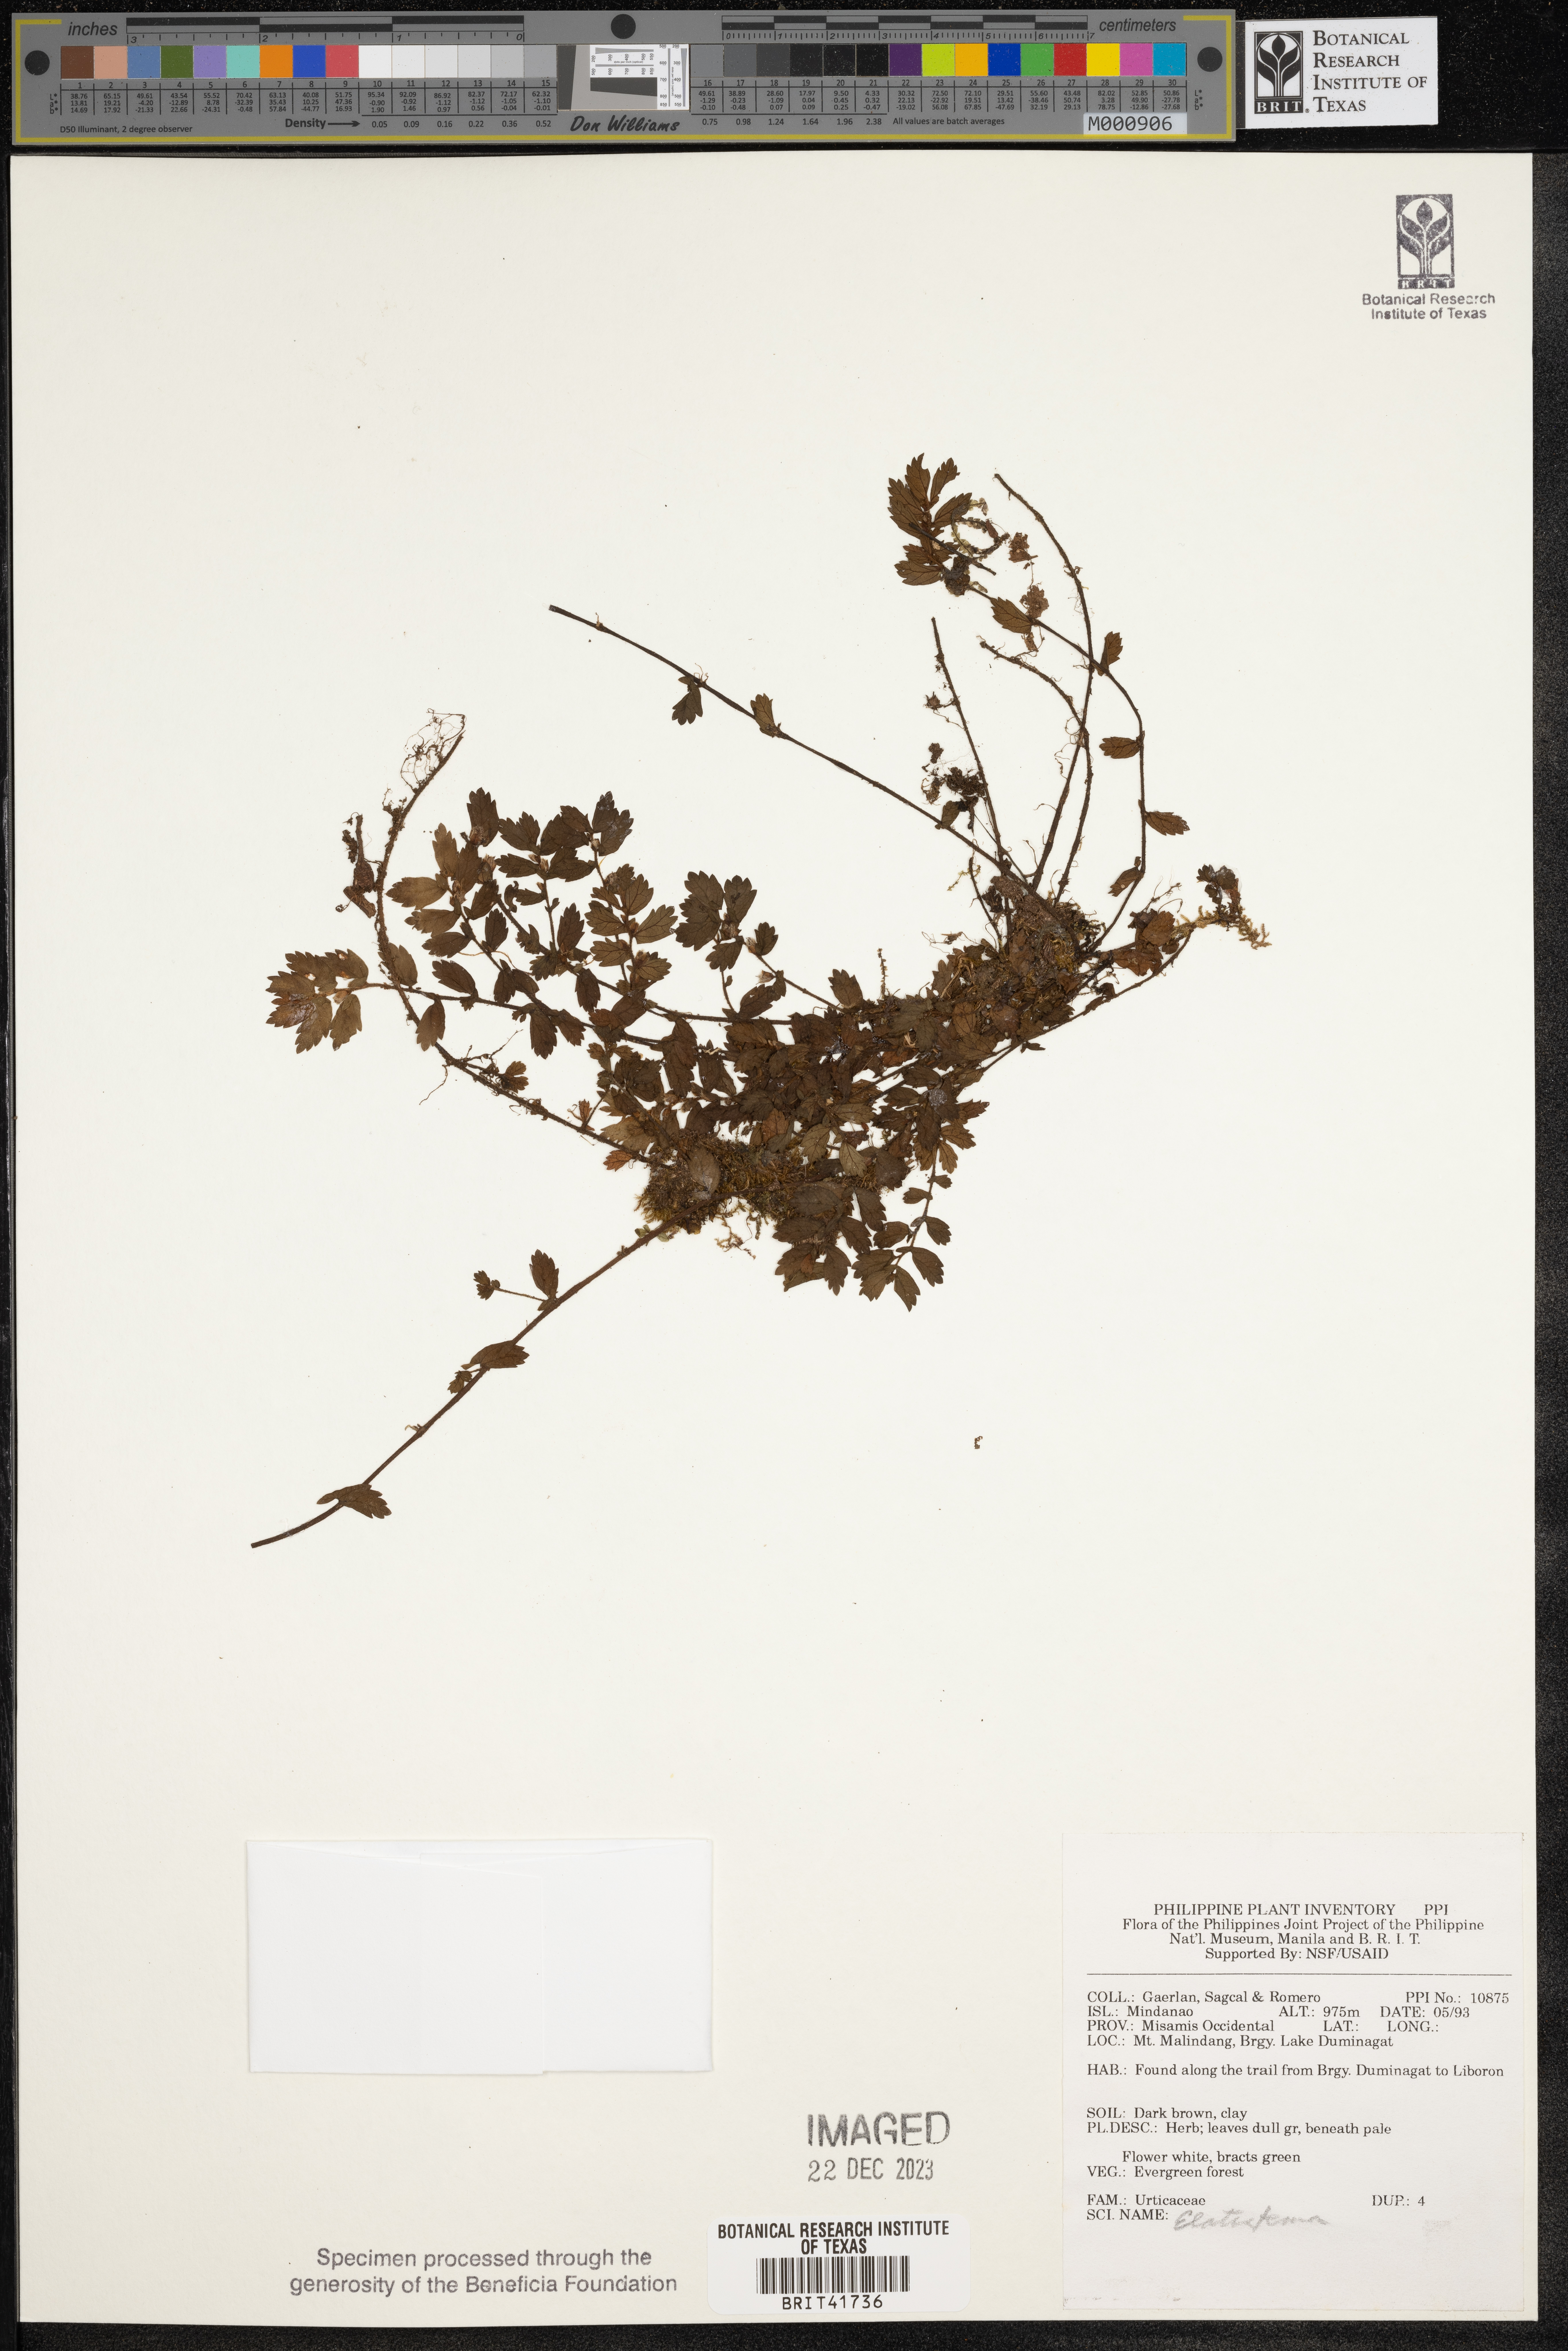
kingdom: Plantae
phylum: Tracheophyta
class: Magnoliopsida
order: Rosales
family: Urticaceae
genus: Elatostema
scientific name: Elatostema
